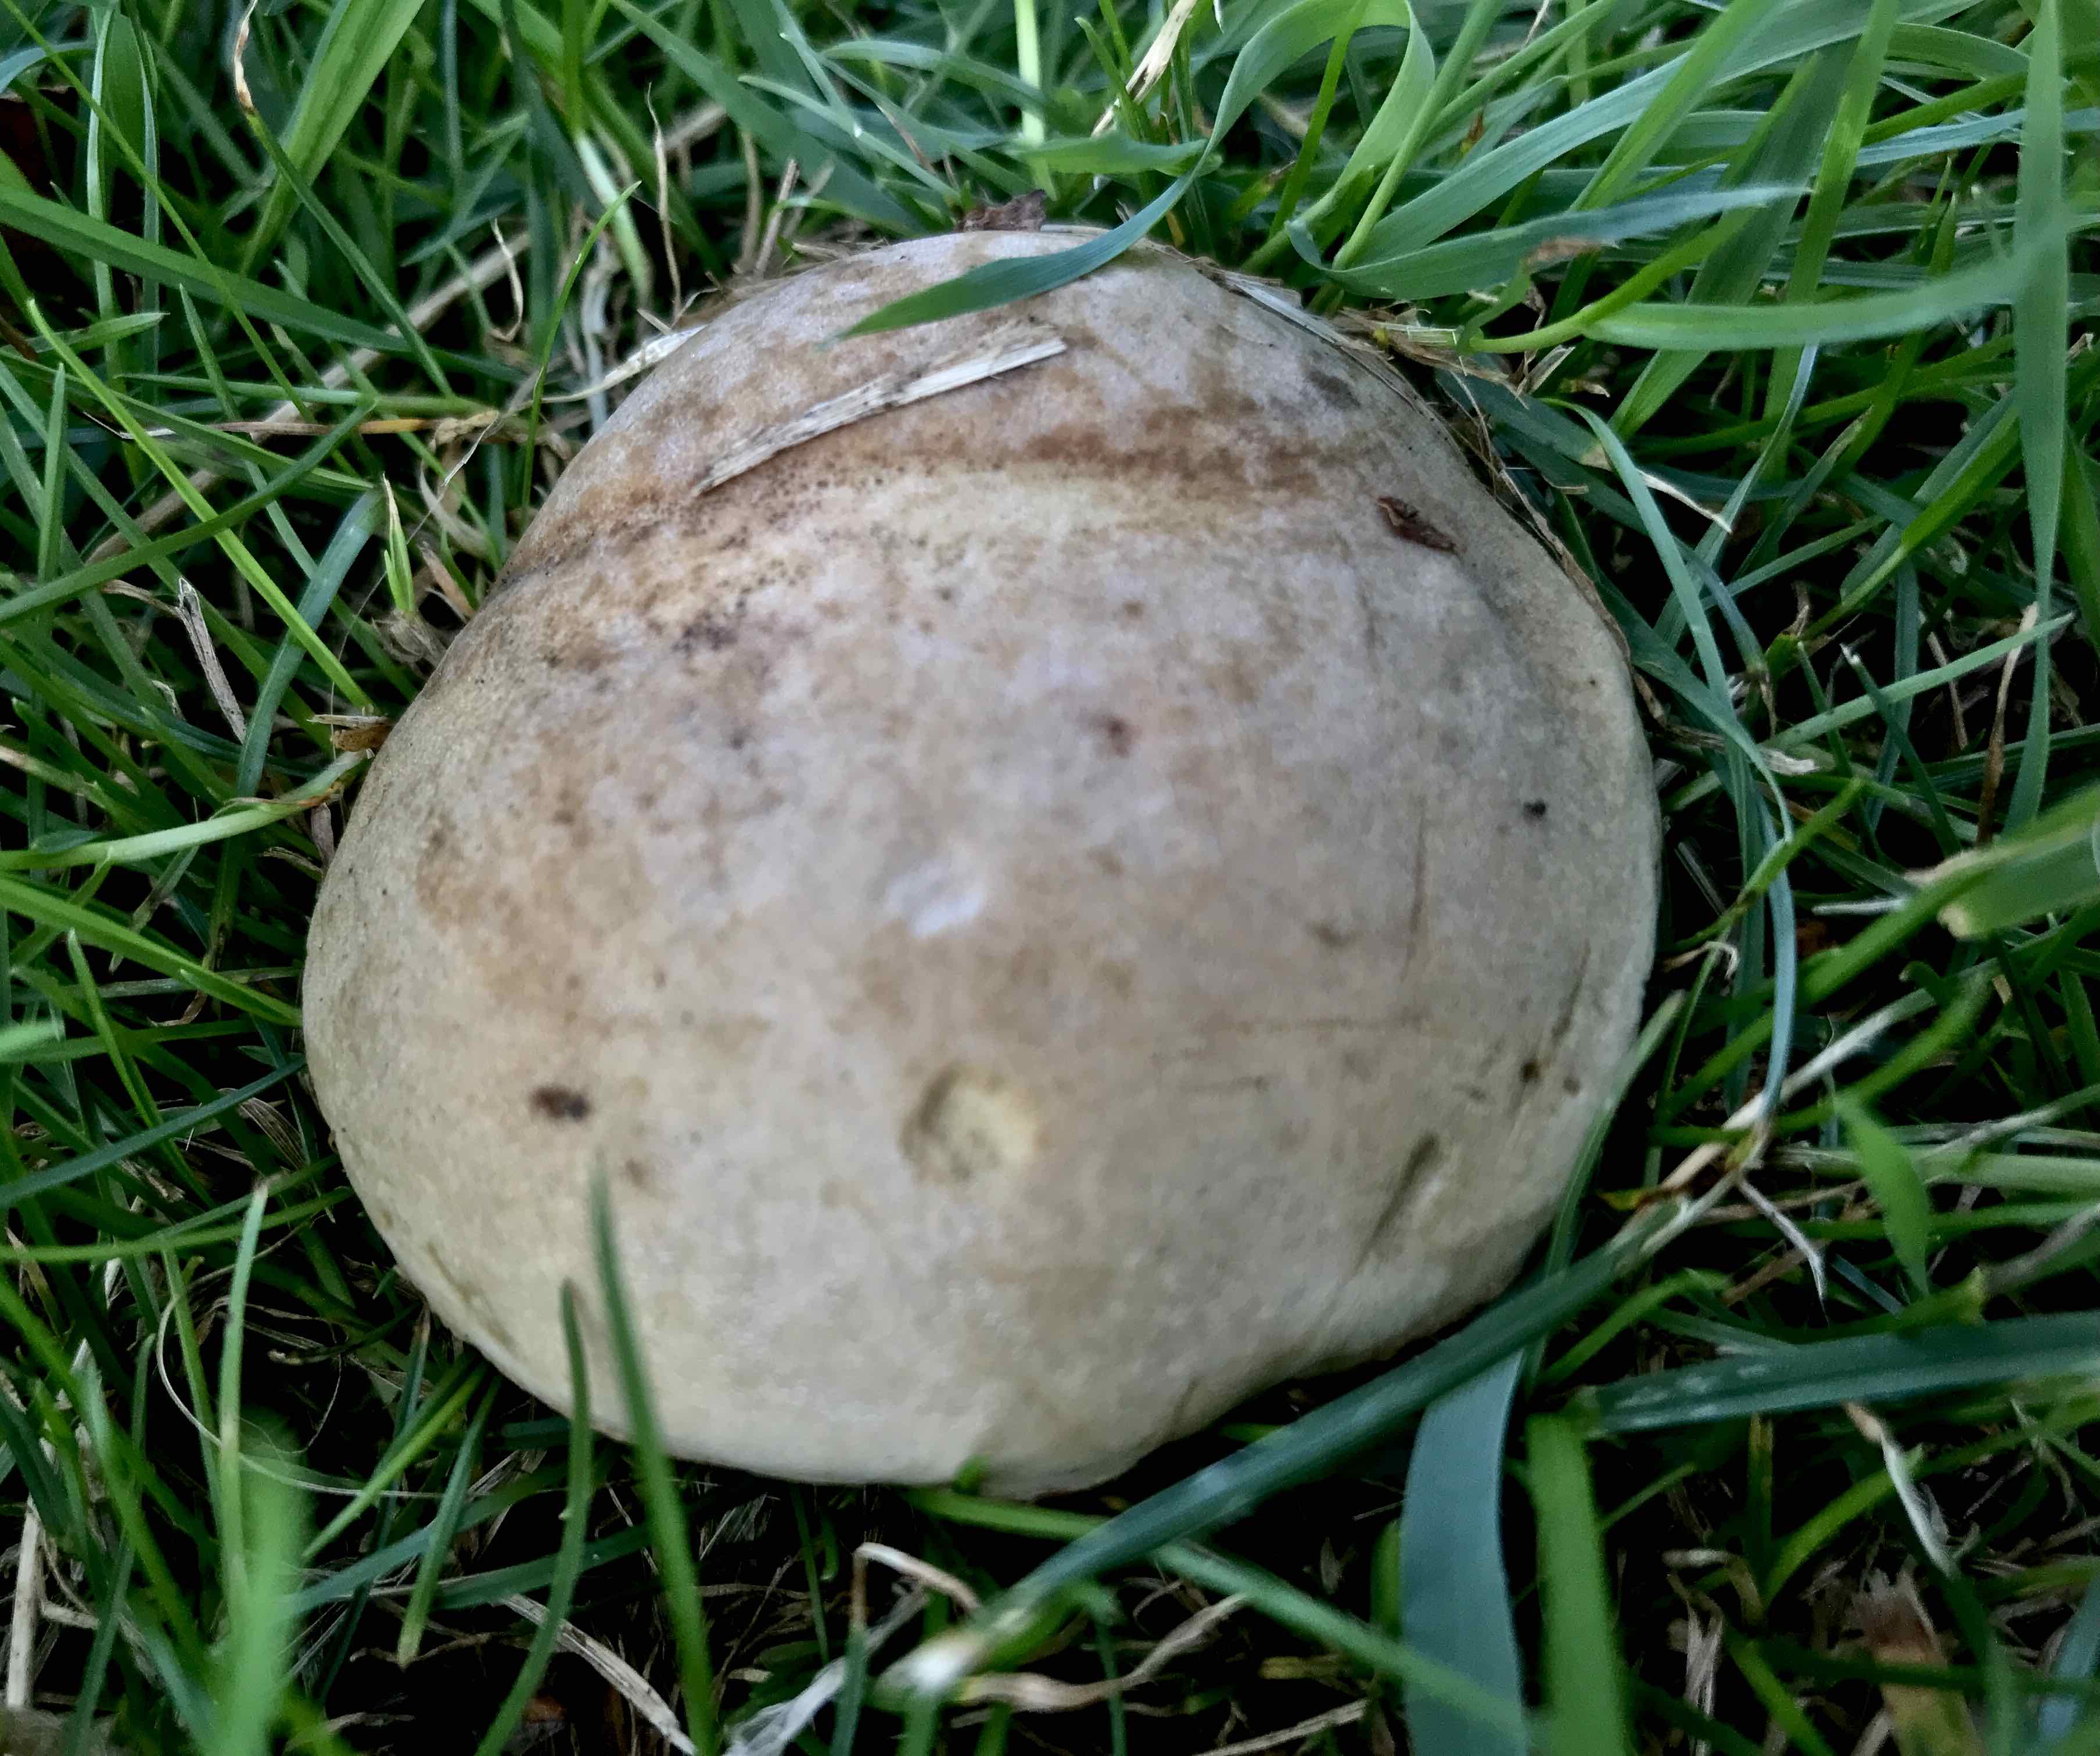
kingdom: Fungi
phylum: Basidiomycota
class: Agaricomycetes
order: Boletales
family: Boletaceae
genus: Hortiboletus
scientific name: Hortiboletus bubalinus
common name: aurora-rørhat
